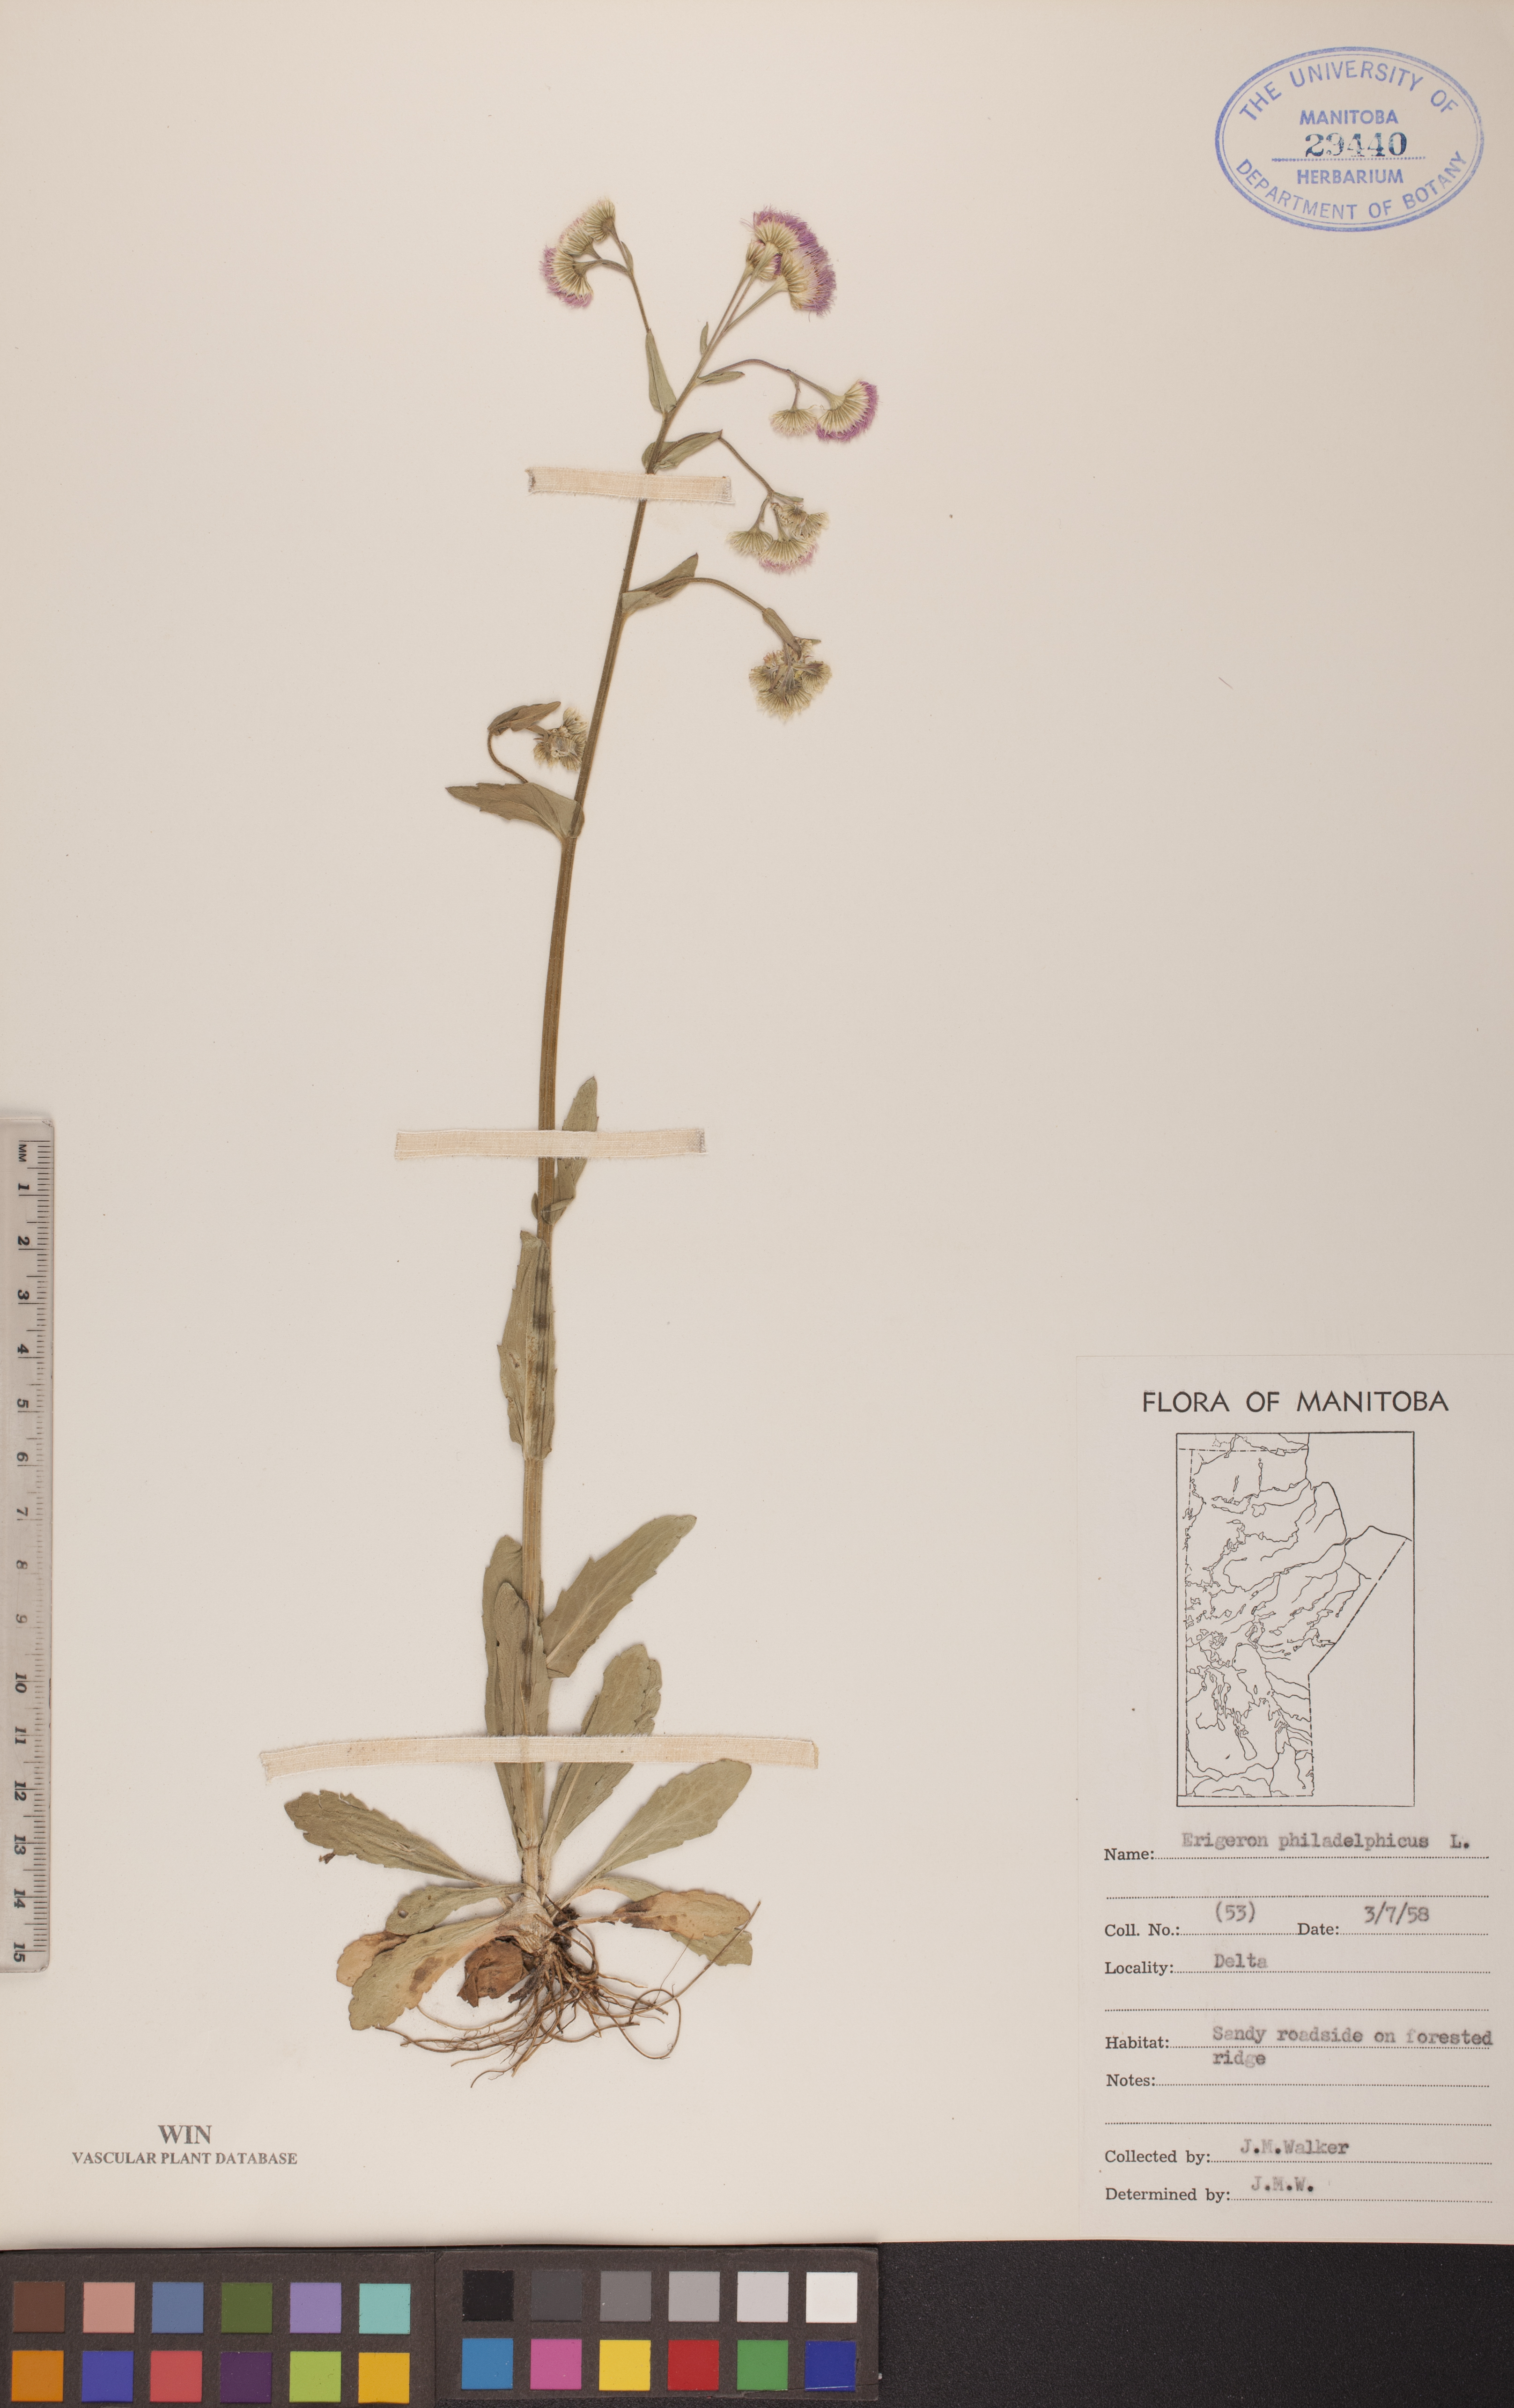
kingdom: Plantae
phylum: Tracheophyta
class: Magnoliopsida
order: Asterales
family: Asteraceae
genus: Erigeron
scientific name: Erigeron philadelphicus
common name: Robin's-plantain
